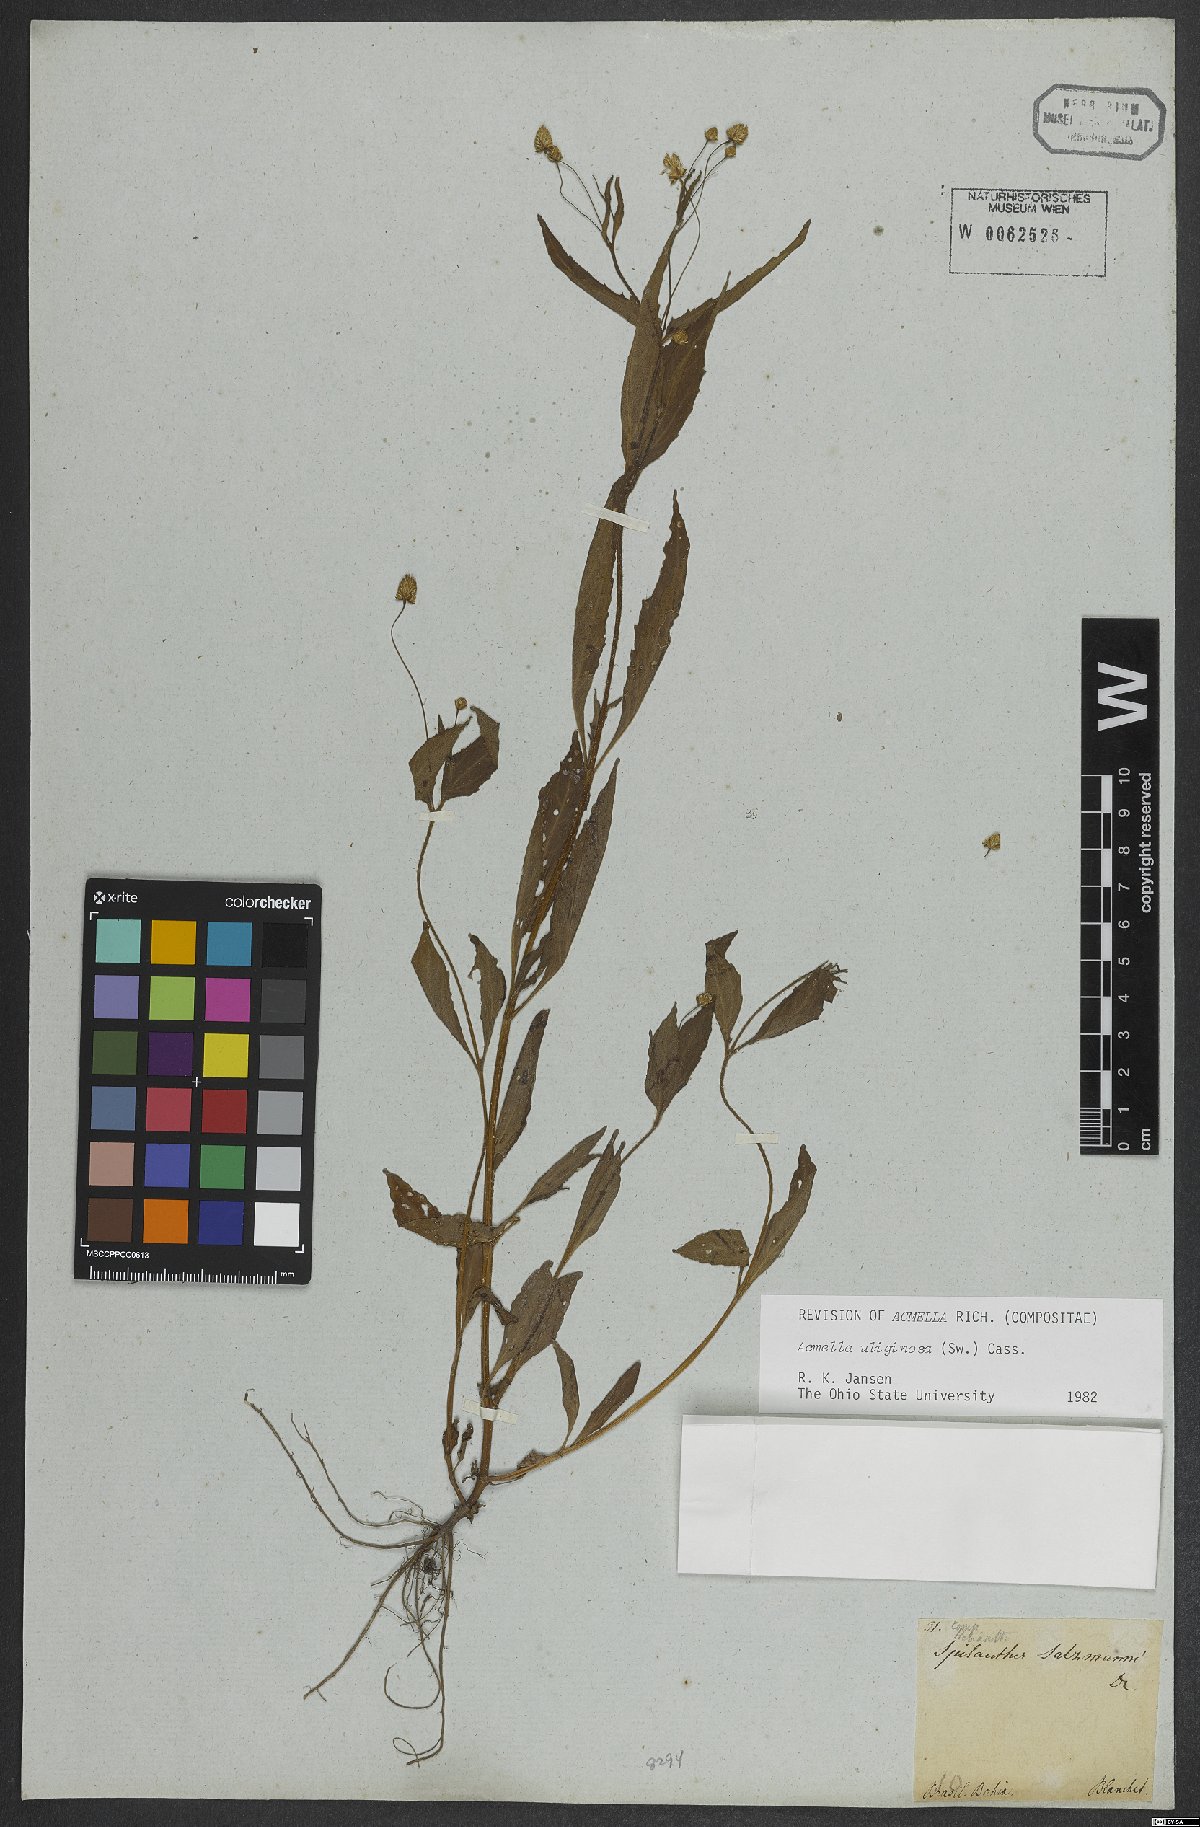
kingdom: Plantae
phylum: Tracheophyta
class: Magnoliopsida
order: Asterales
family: Asteraceae
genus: Acmella
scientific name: Acmella uliginosa
